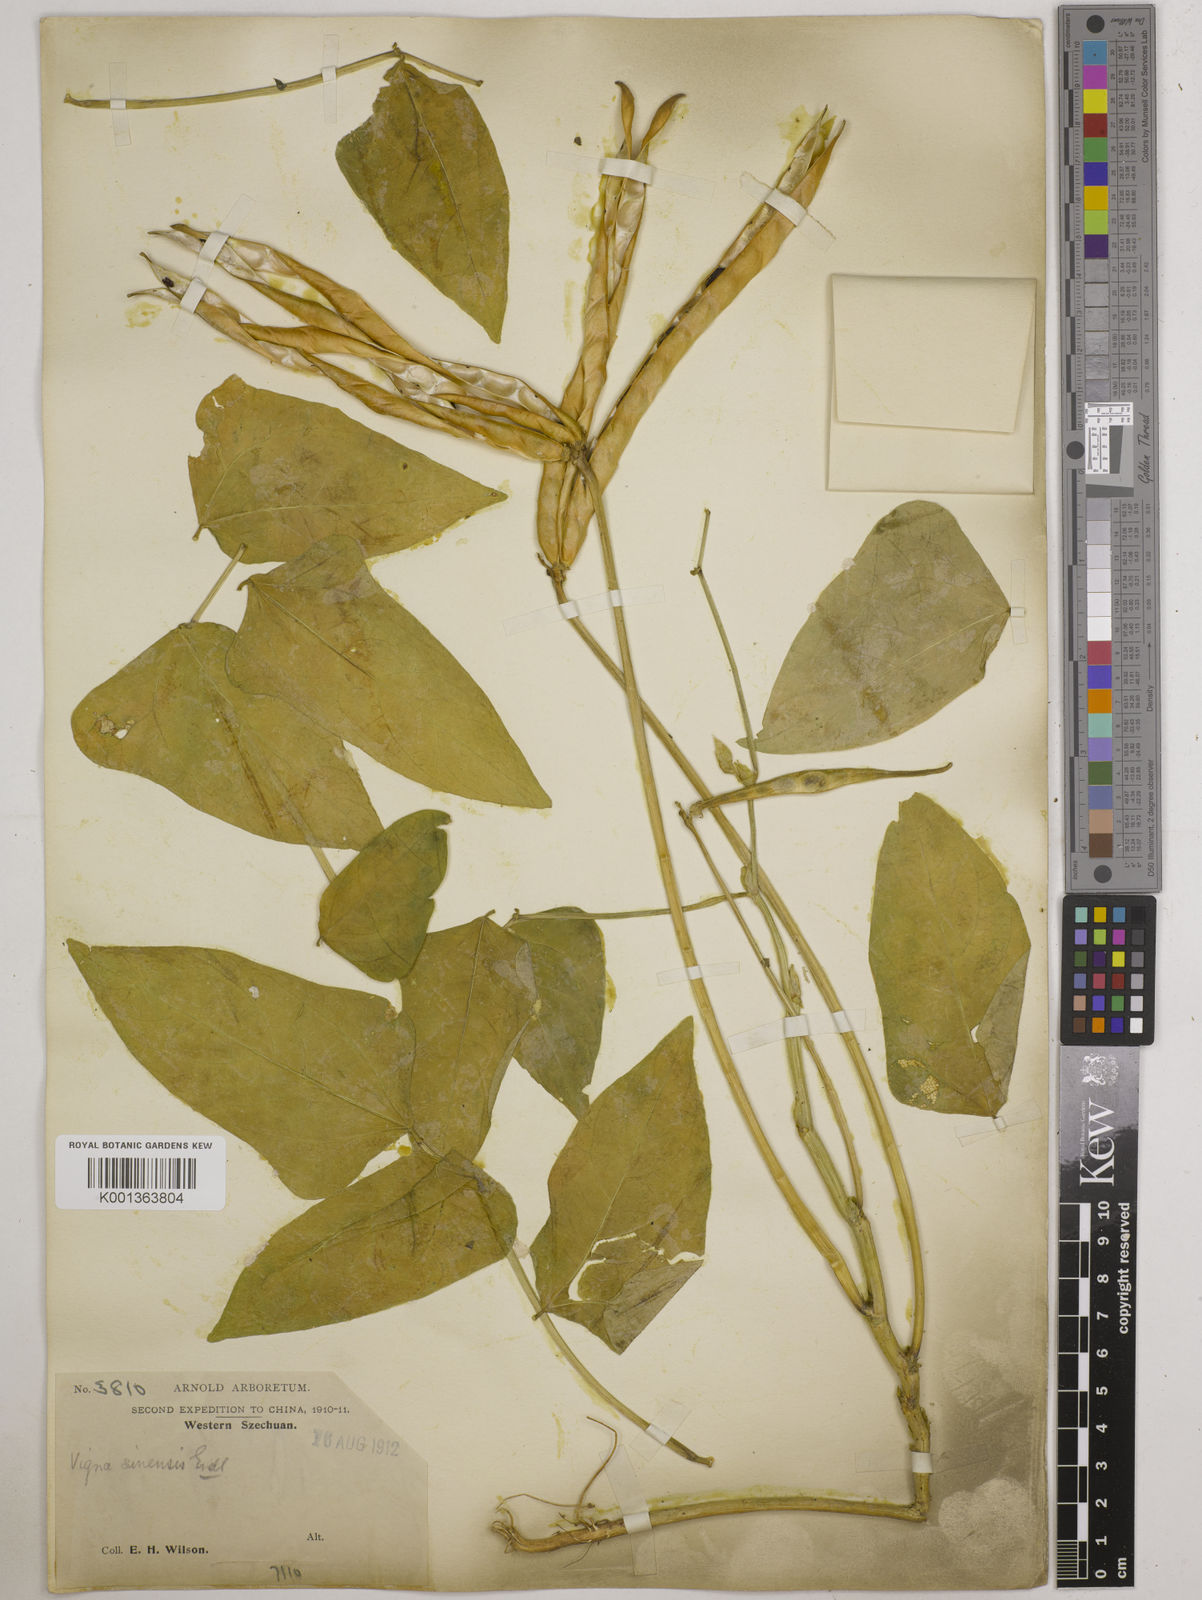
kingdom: Plantae
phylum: Tracheophyta
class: Magnoliopsida
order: Fabales
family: Fabaceae
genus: Vigna
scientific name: Vigna
